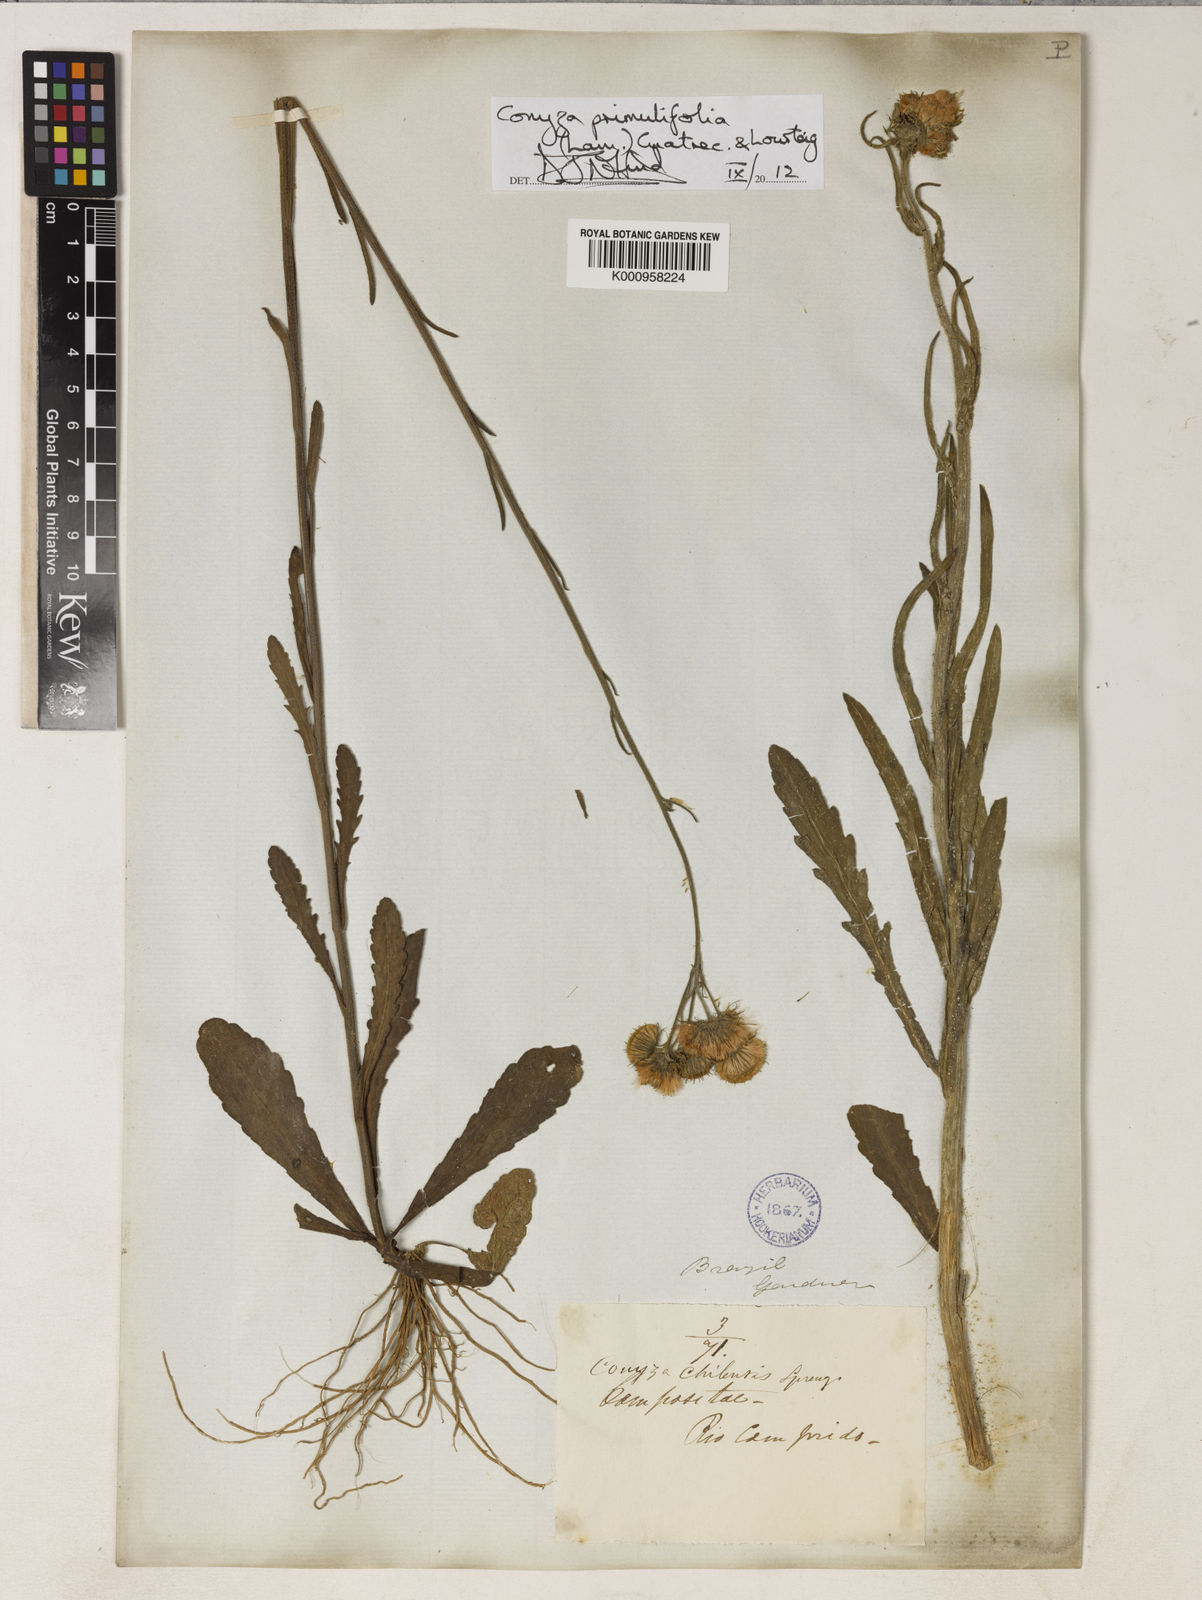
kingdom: Plantae
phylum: Tracheophyta
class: Magnoliopsida
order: Asterales
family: Asteraceae
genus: Erigeron
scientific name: Erigeron primulifolius
